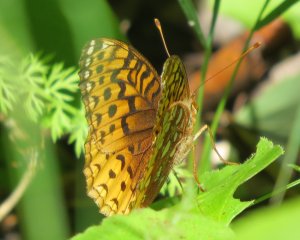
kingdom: Animalia
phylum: Arthropoda
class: Insecta
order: Lepidoptera
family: Nymphalidae
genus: Speyeria
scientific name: Speyeria cybele
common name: Great Spangled Fritillary
